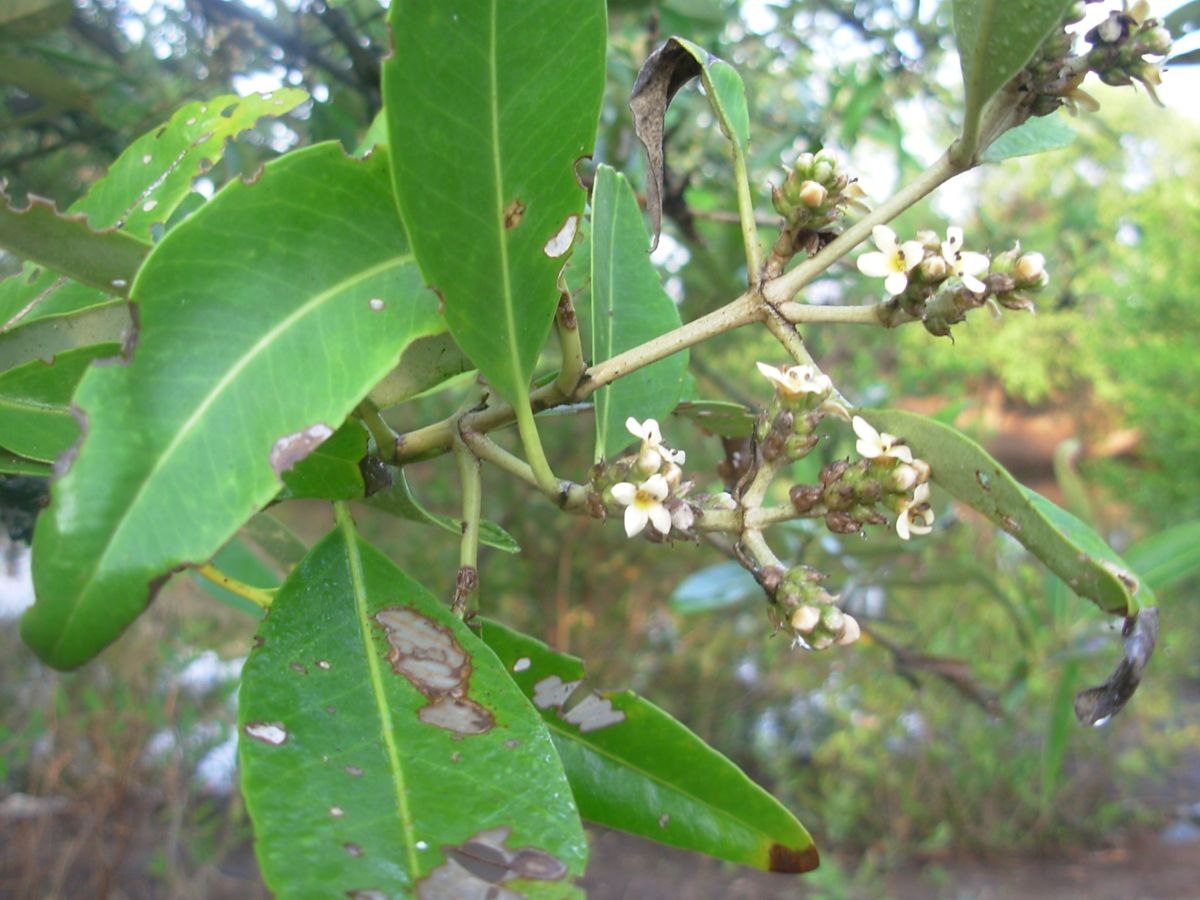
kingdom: Plantae
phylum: Tracheophyta
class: Magnoliopsida
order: Lamiales
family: Acanthaceae
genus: Avicennia
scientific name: Avicennia germinans
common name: Black mangrove
